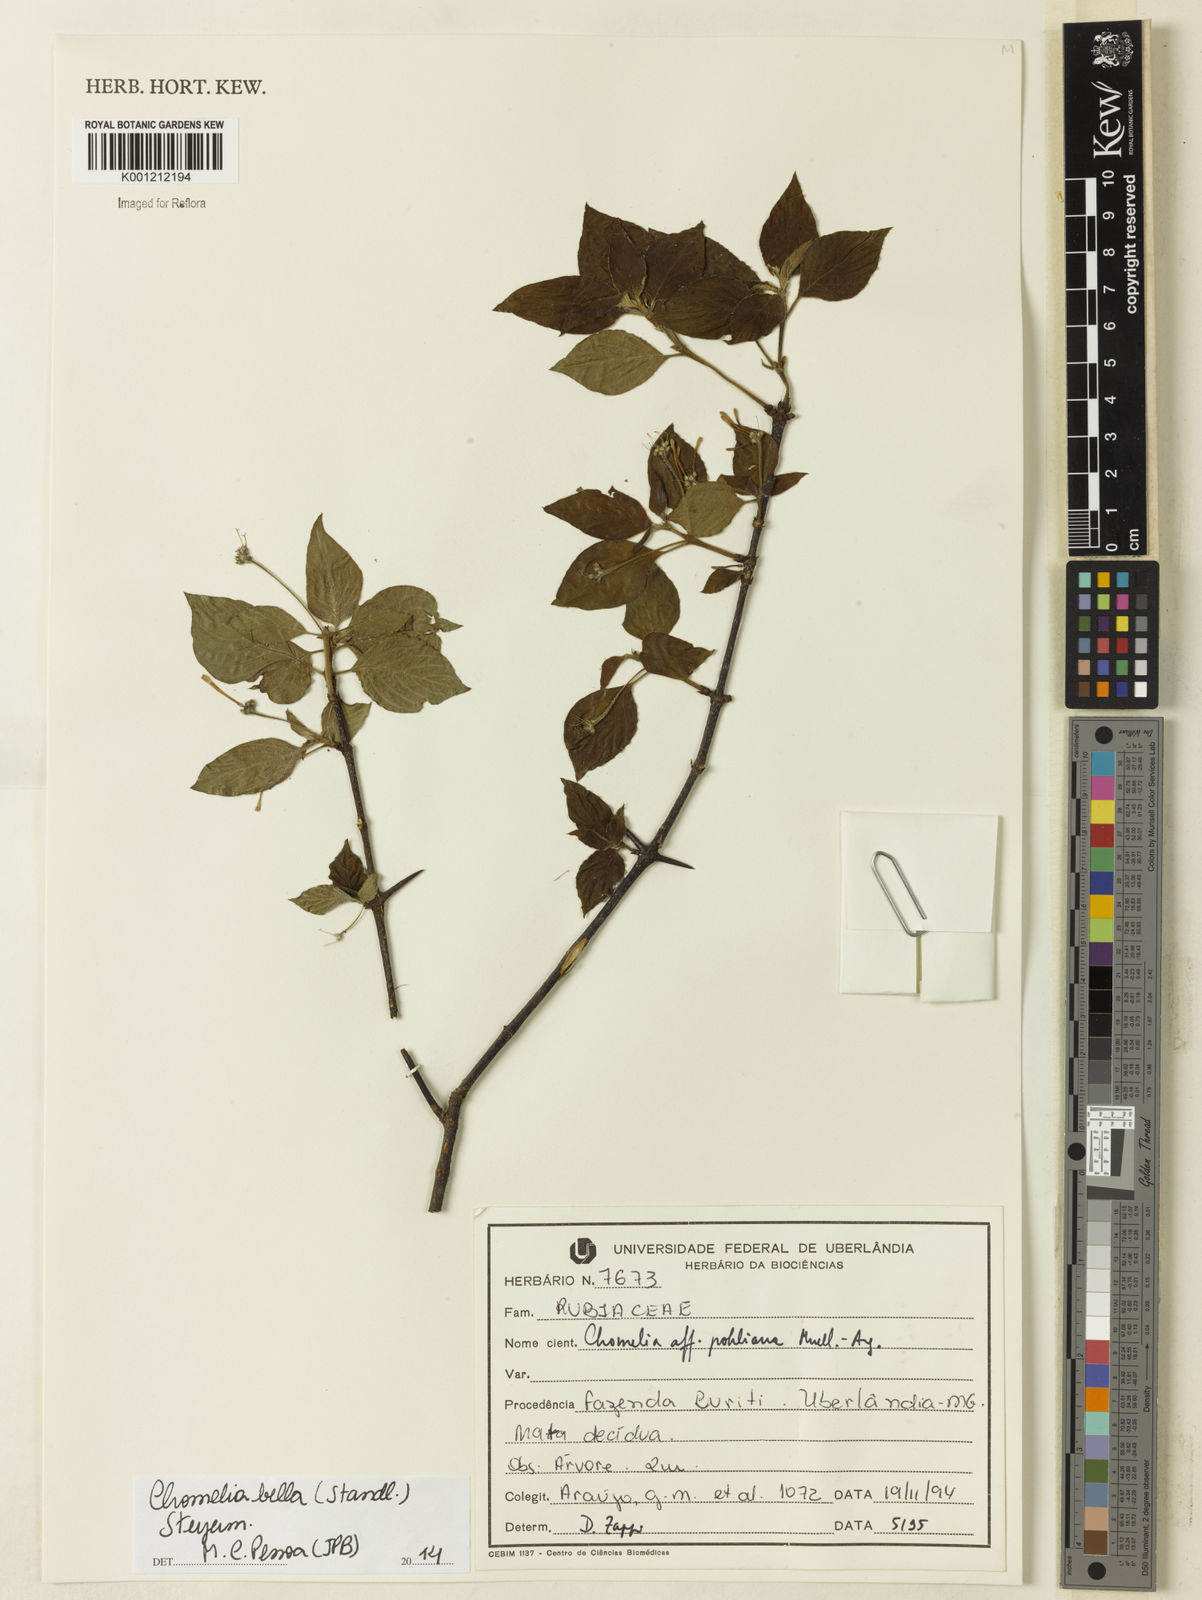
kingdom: Plantae
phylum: Tracheophyta
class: Magnoliopsida
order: Gentianales
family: Rubiaceae
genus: Chomelia
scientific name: Chomelia bella
